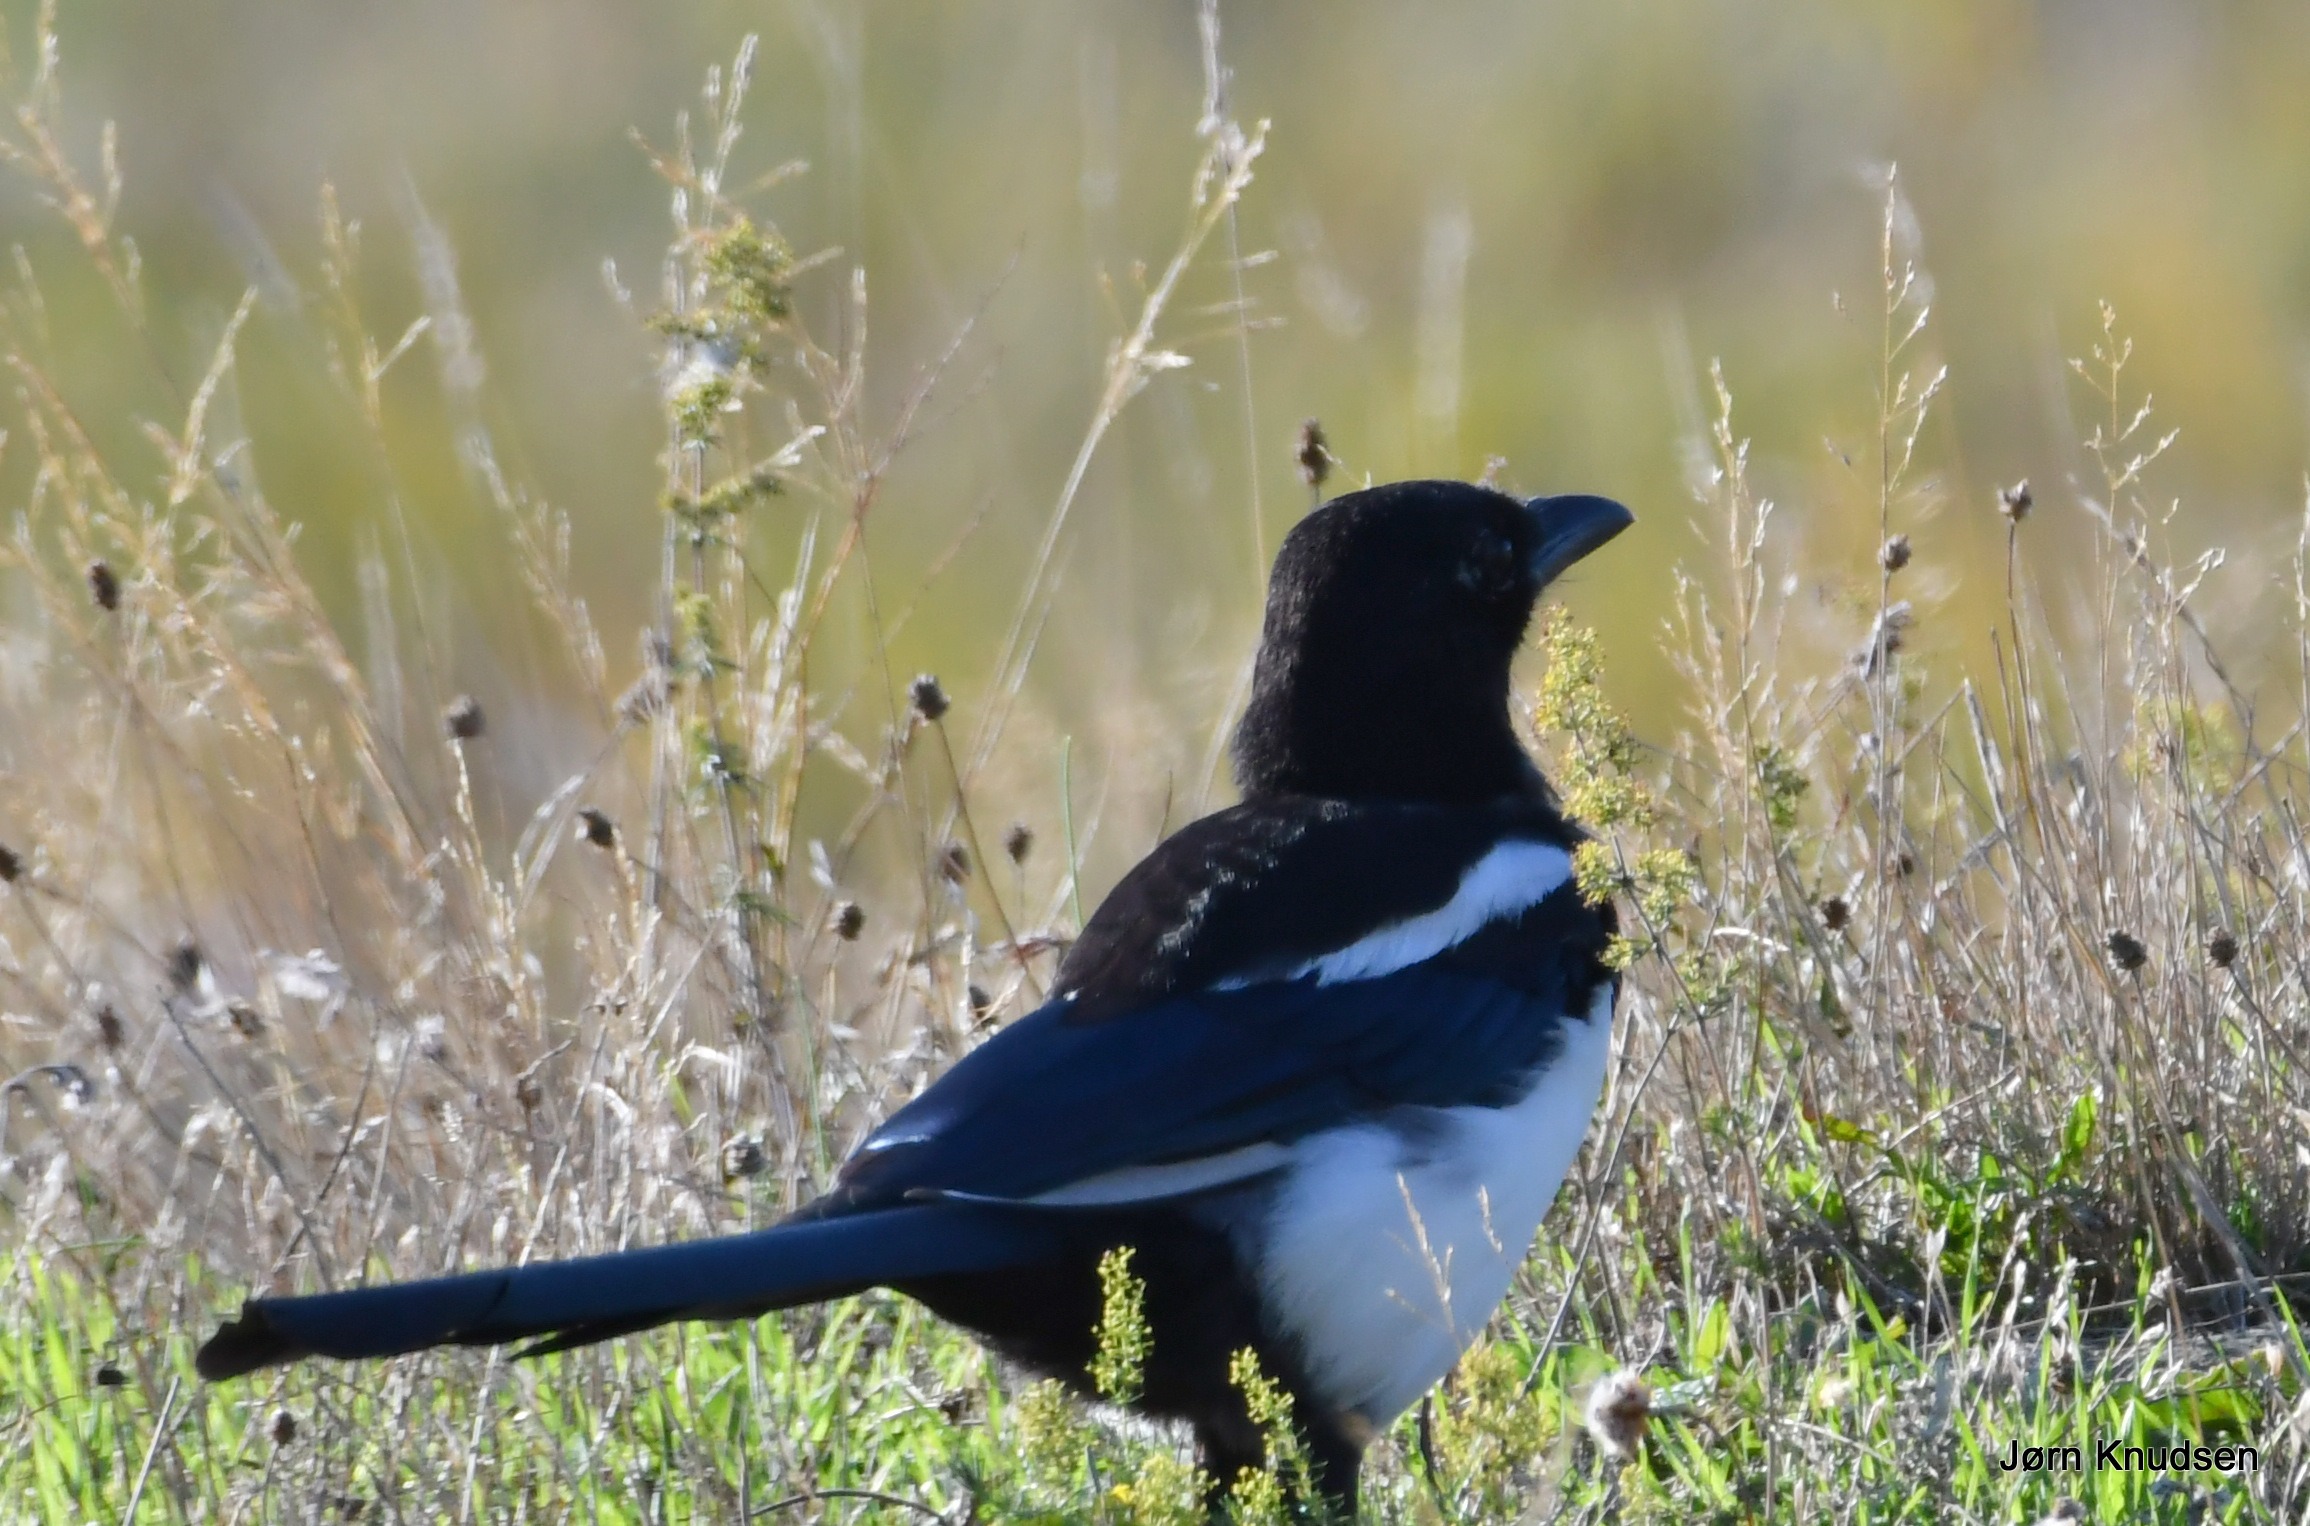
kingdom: Animalia
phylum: Chordata
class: Aves
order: Passeriformes
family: Corvidae
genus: Pica
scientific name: Pica pica
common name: Husskade
